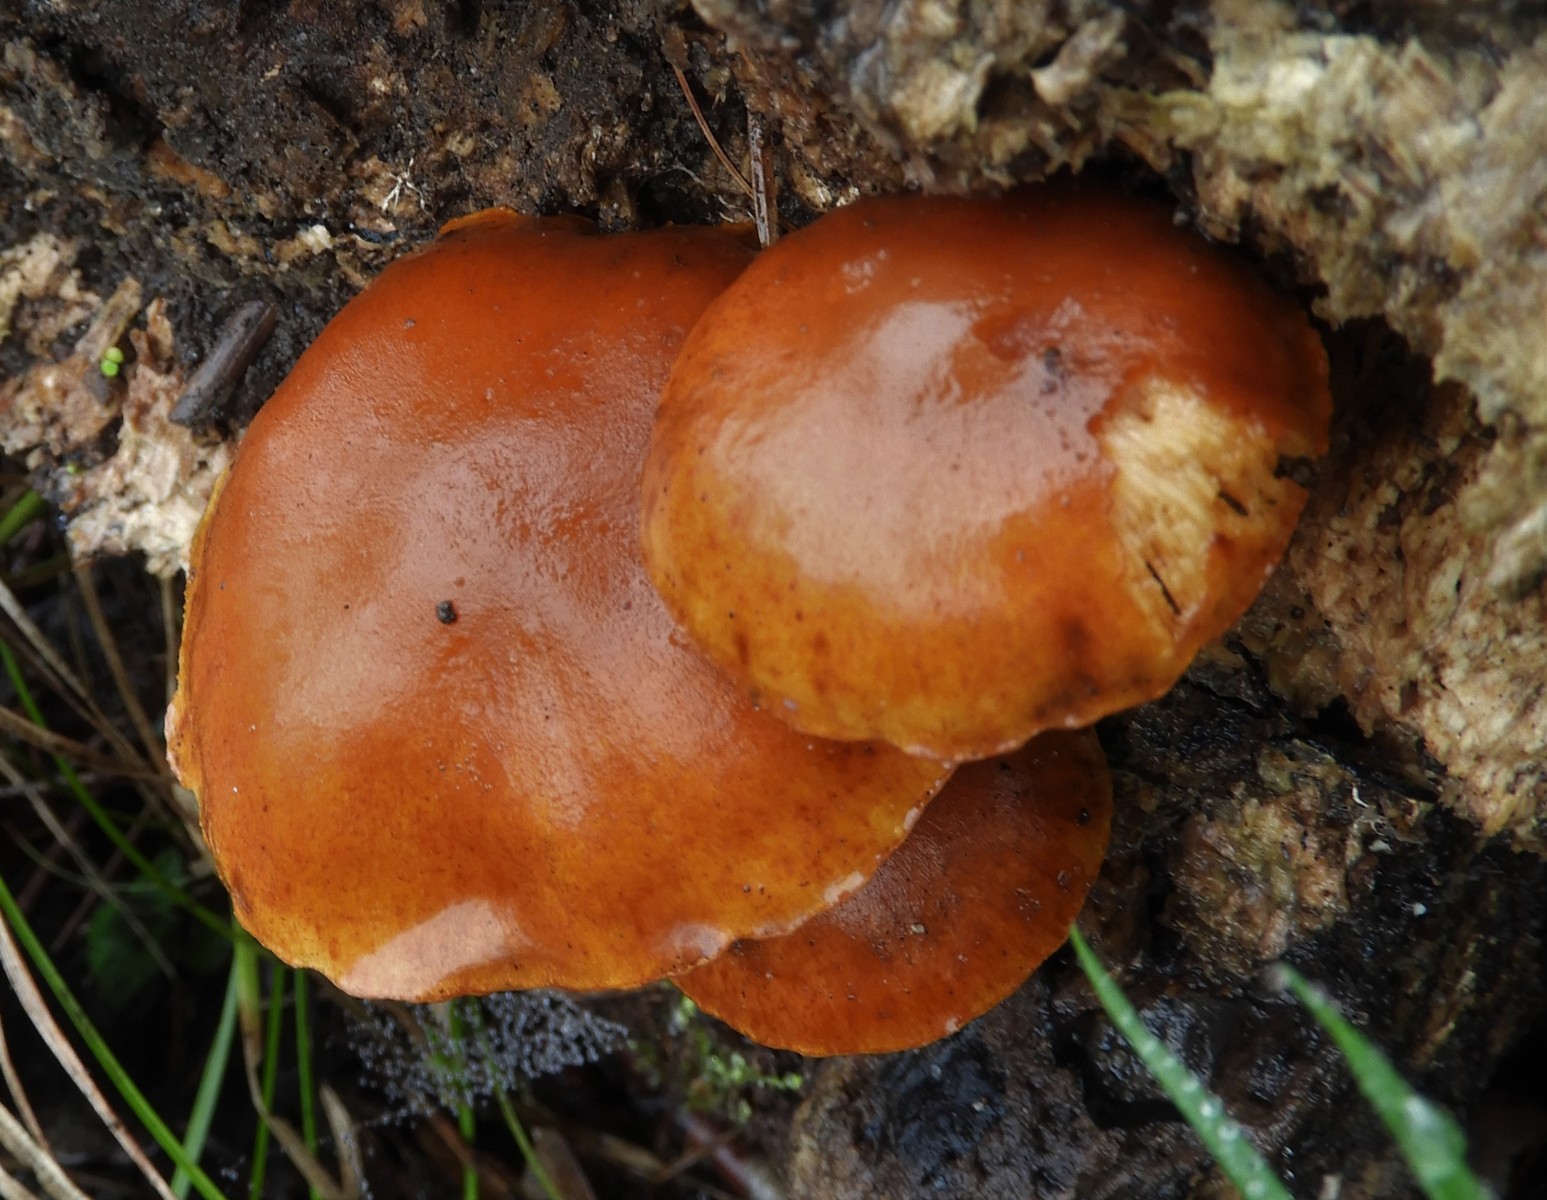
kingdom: Fungi
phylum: Basidiomycota
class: Agaricomycetes
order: Agaricales
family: Hymenogastraceae
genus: Gymnopilus
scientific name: Gymnopilus penetrans
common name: plettet flammehat
